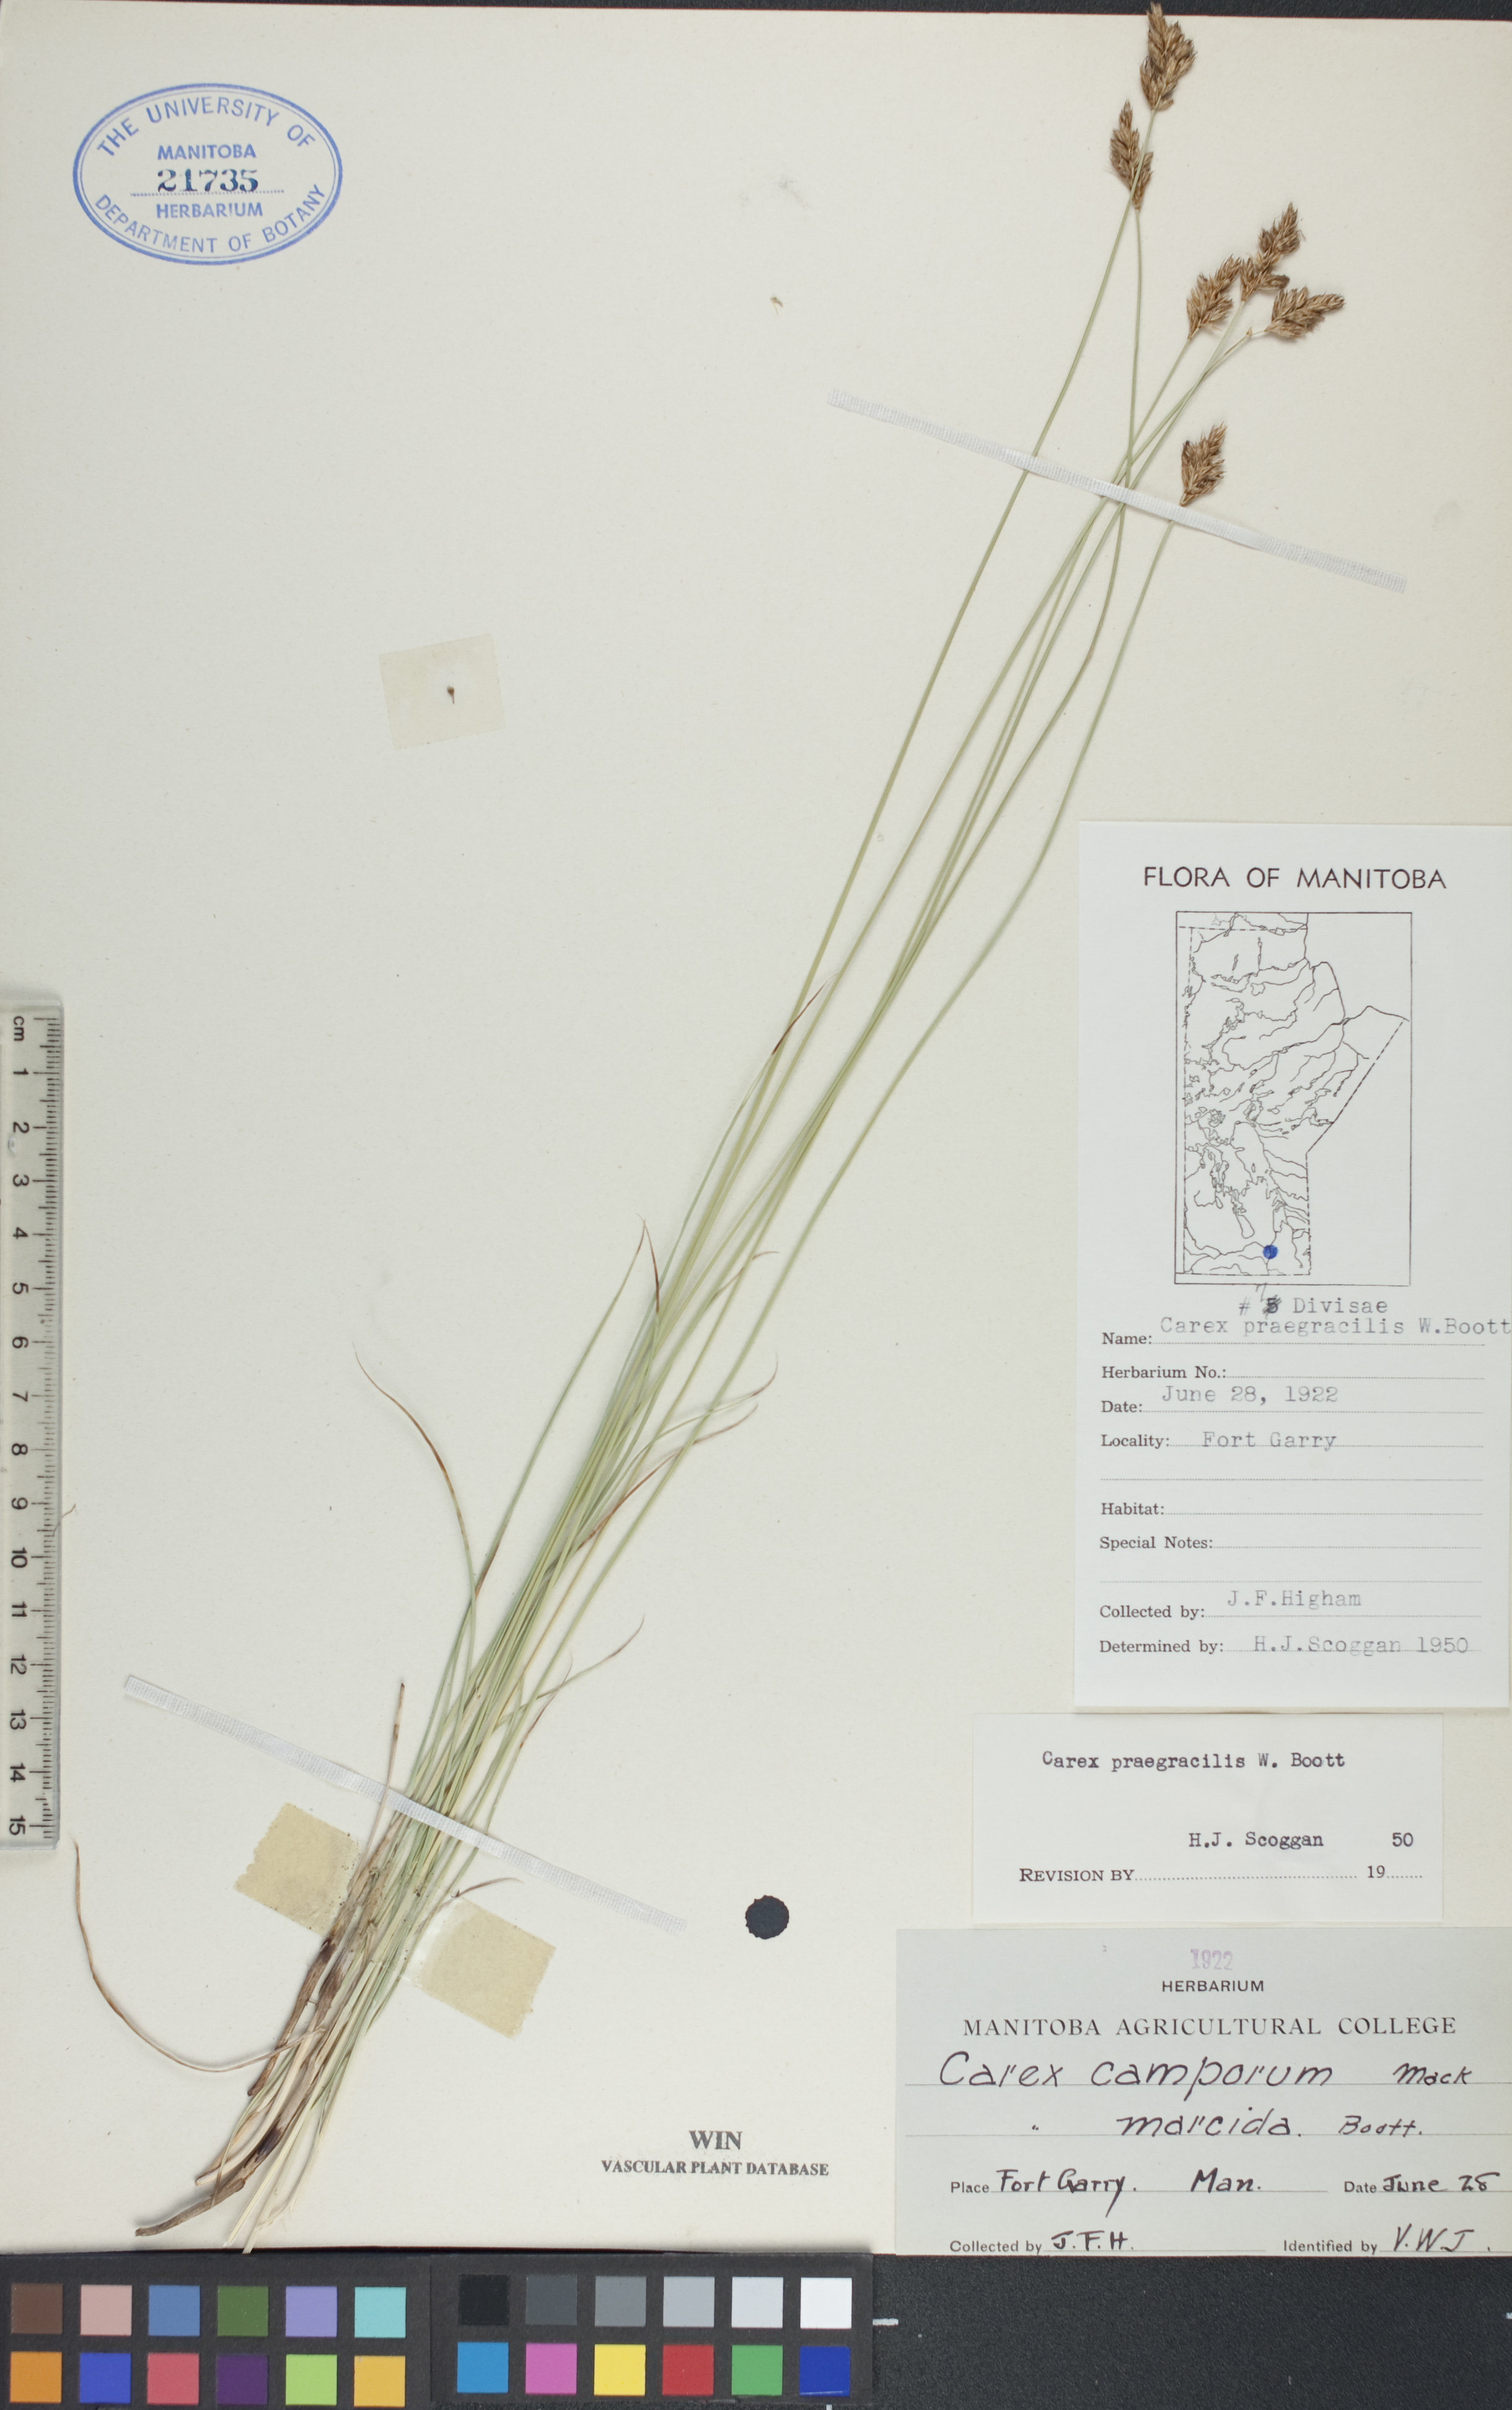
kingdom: Plantae
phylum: Tracheophyta
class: Liliopsida
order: Poales
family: Cyperaceae
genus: Carex
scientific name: Carex praegracilis
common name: Black creeper sedge
